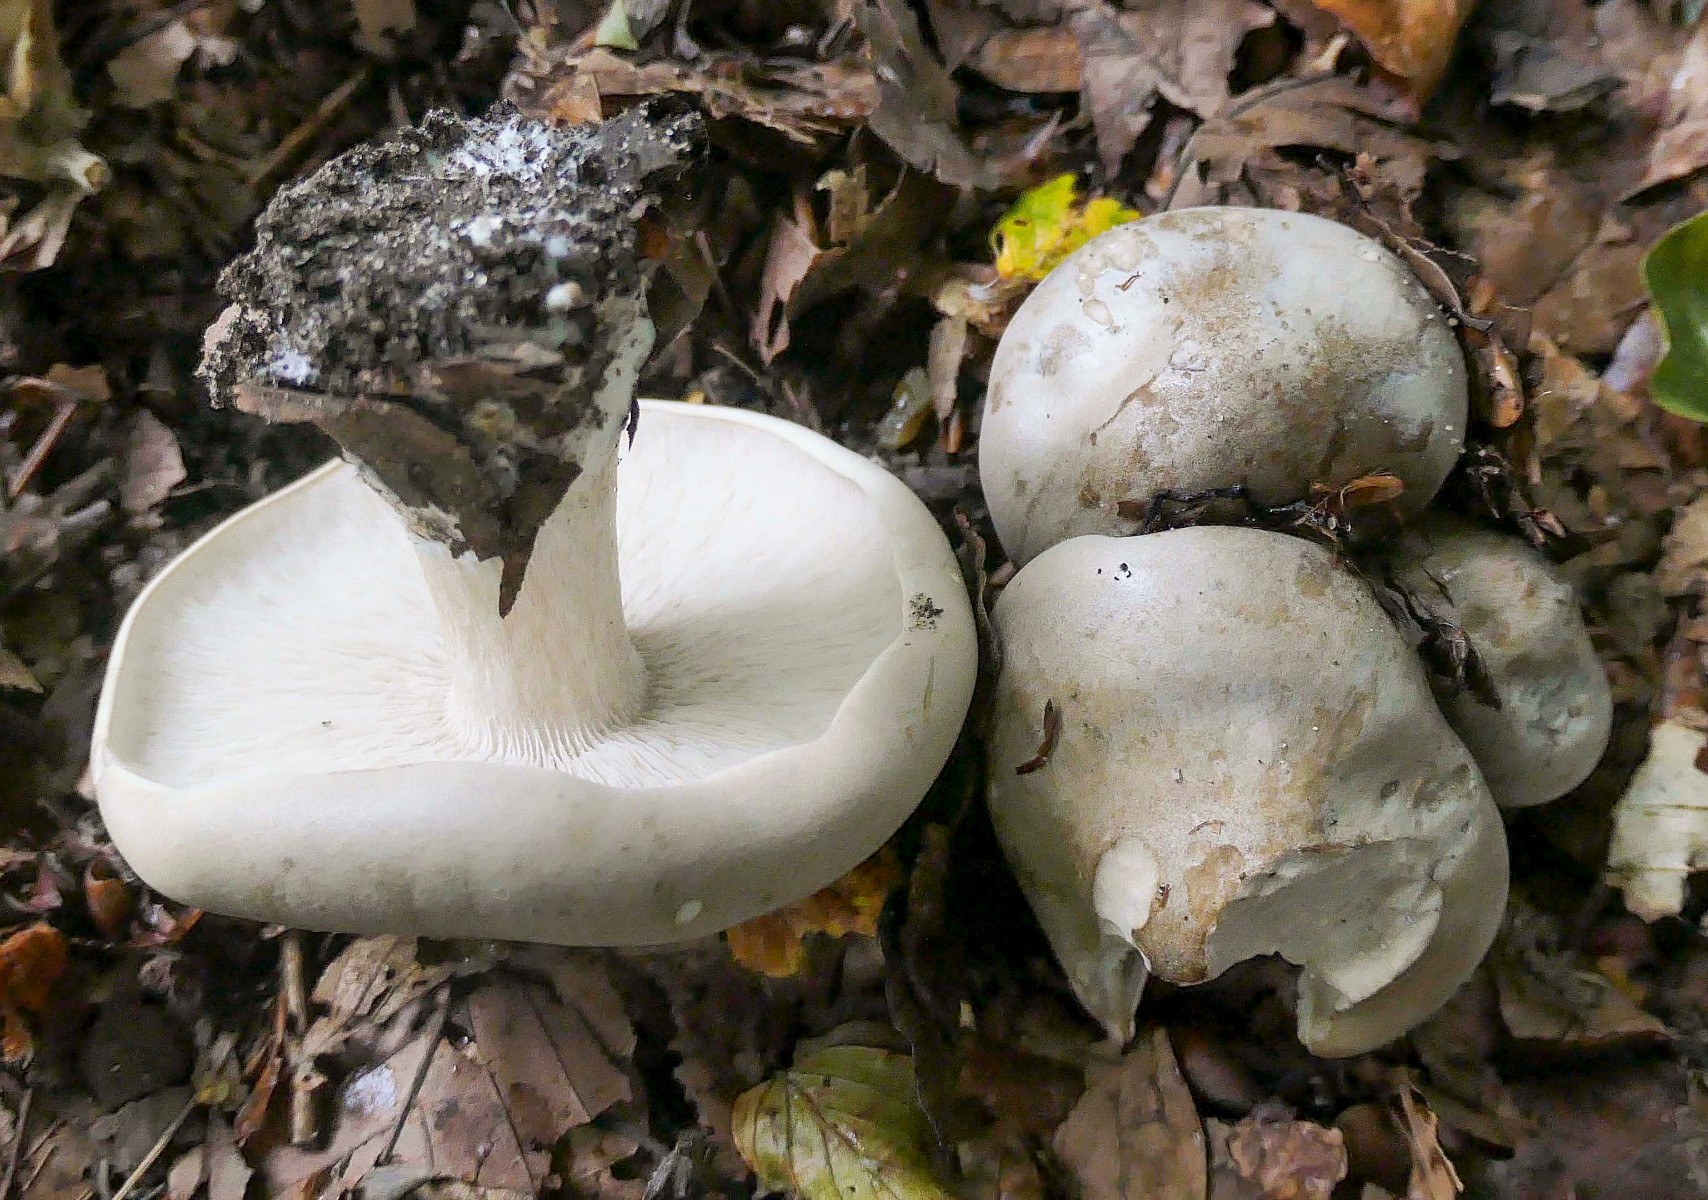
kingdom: Fungi
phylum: Basidiomycota
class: Agaricomycetes
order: Agaricales
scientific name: Agaricales
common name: champignonordenen
